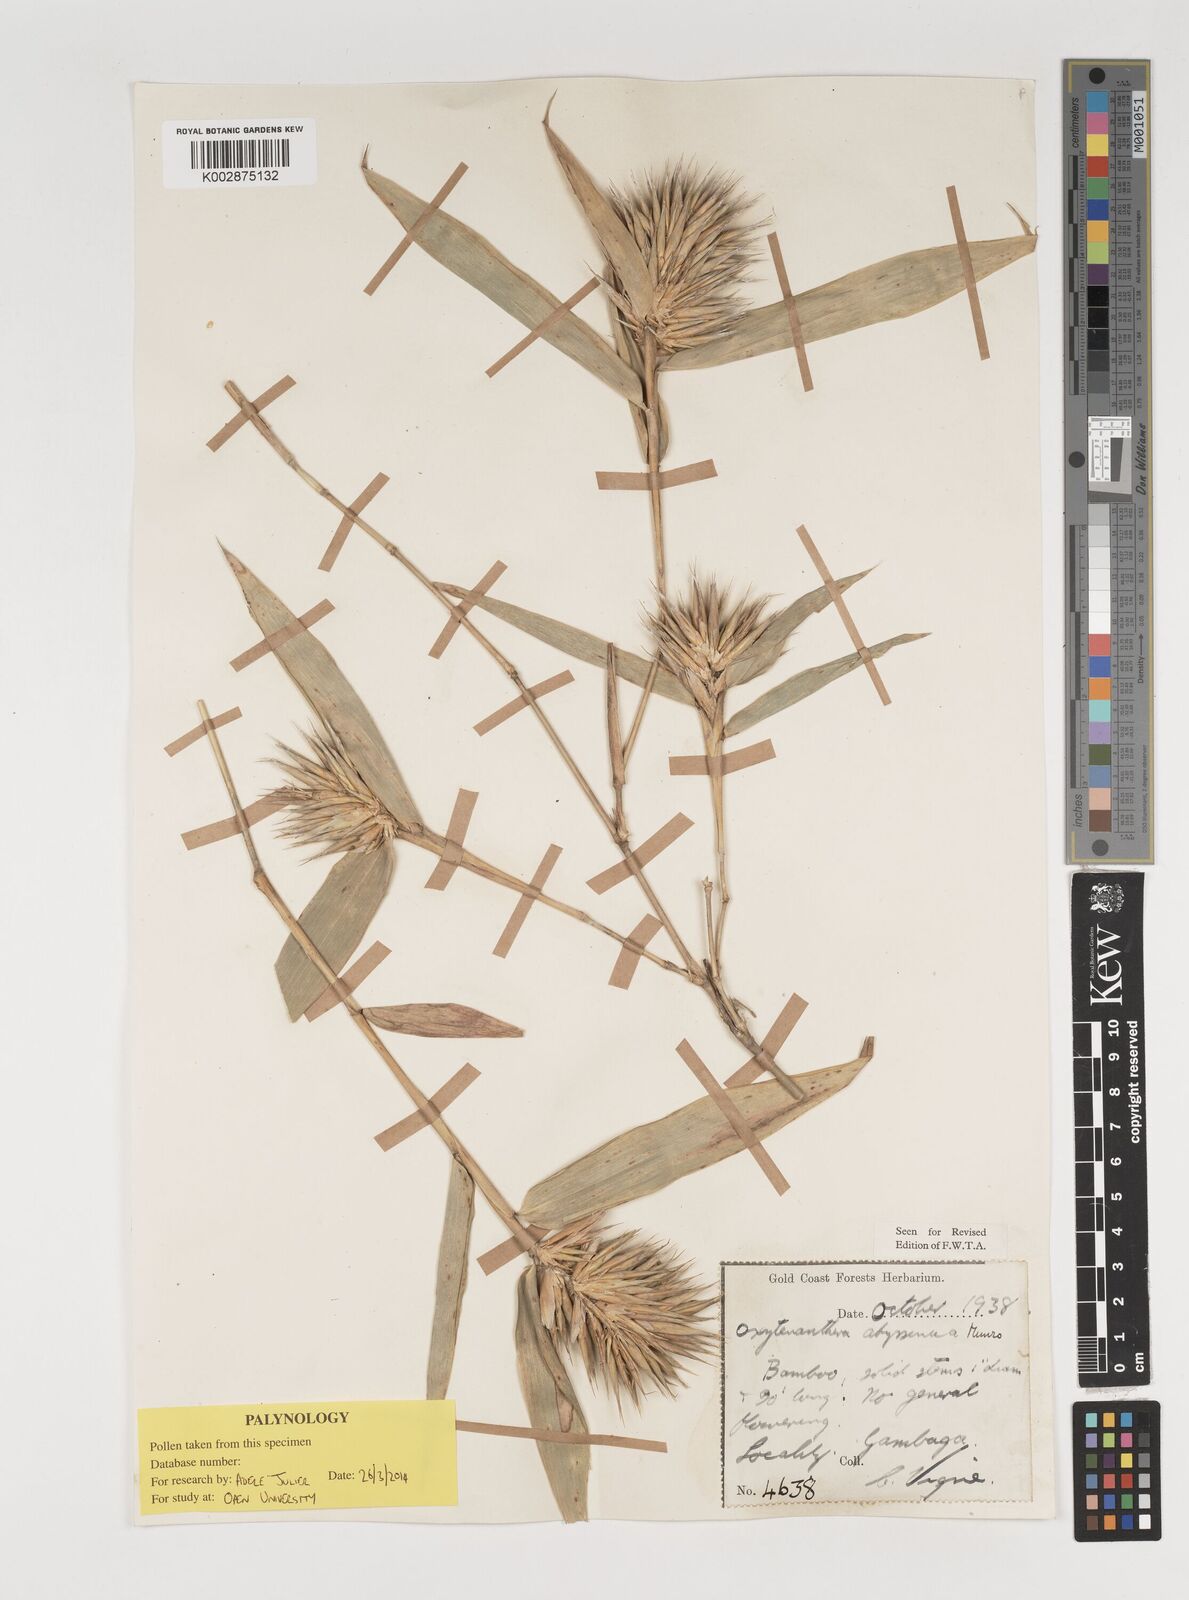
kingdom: Plantae
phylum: Tracheophyta
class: Liliopsida
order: Poales
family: Poaceae
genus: Oxytenanthera
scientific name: Oxytenanthera abyssinica
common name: Wine bamboo
